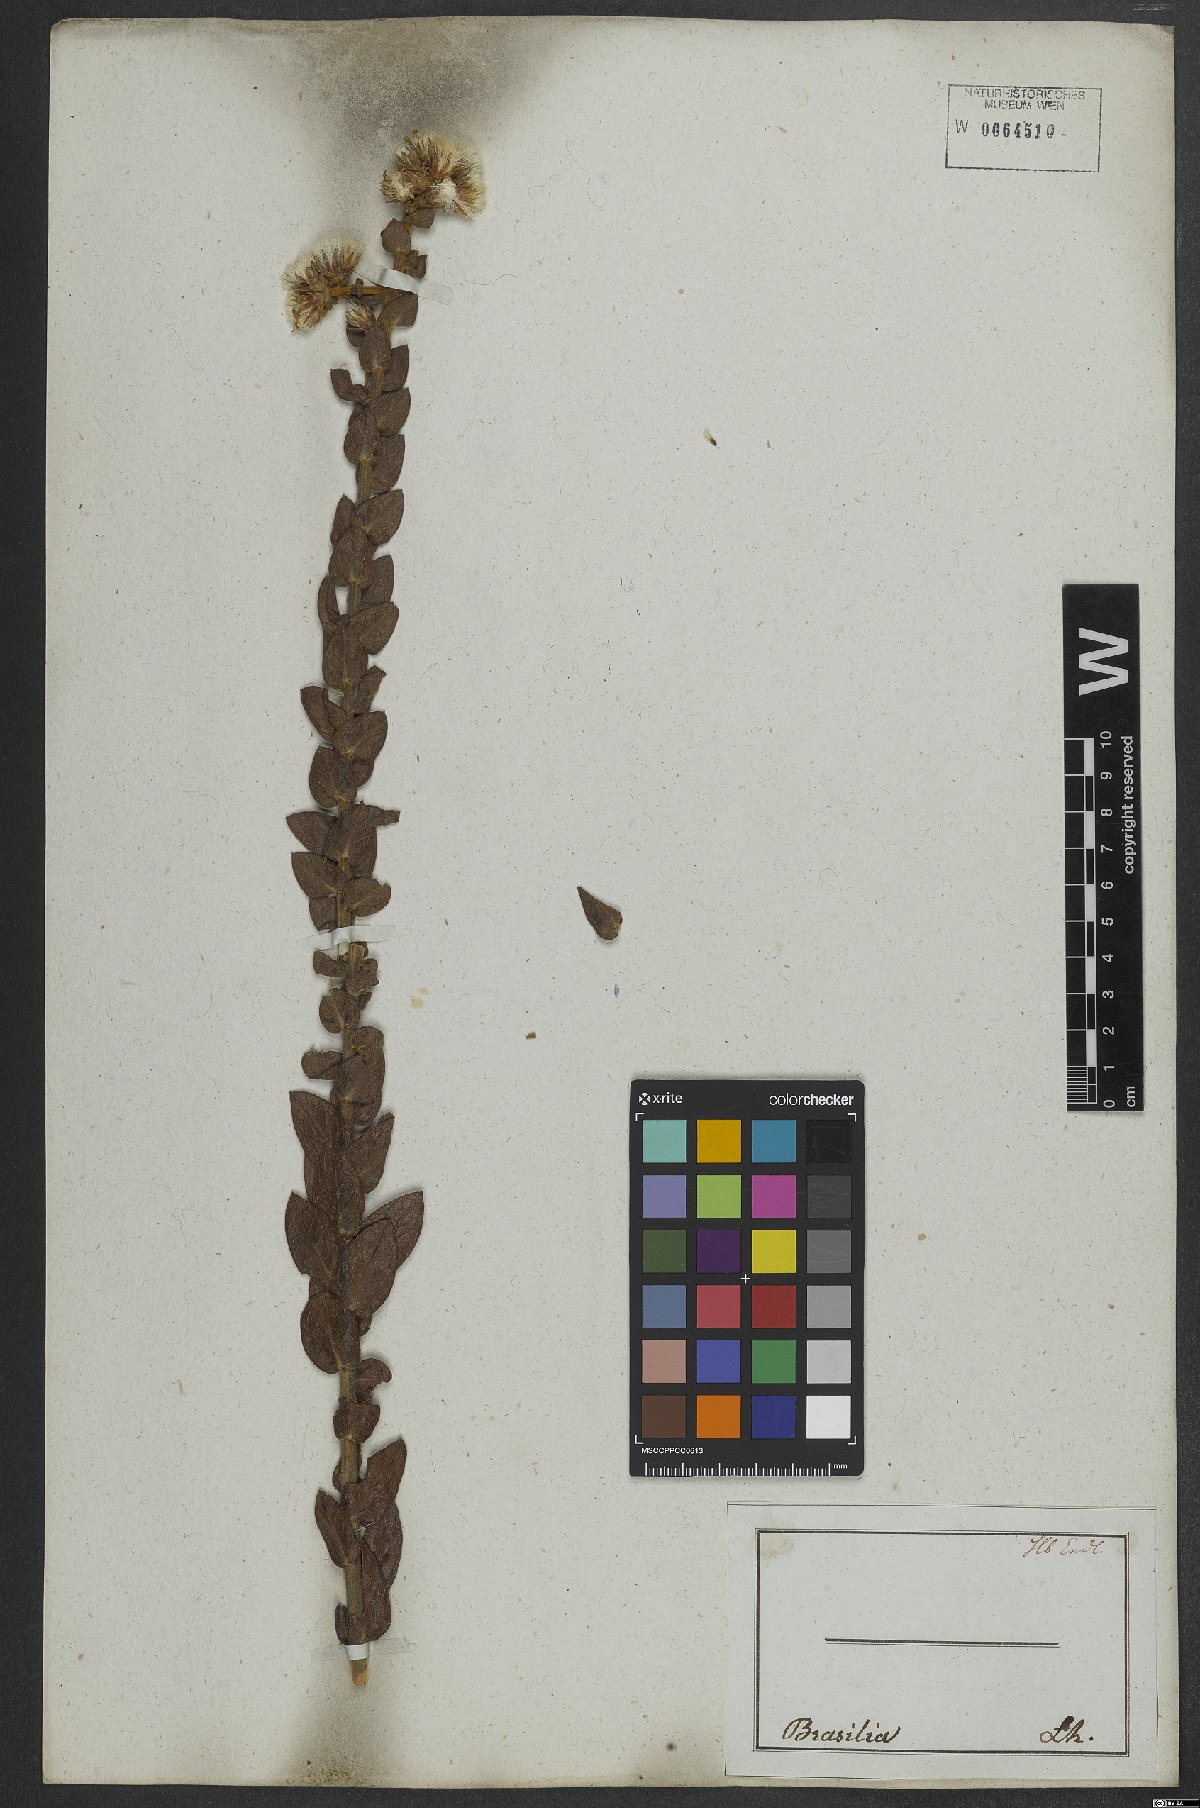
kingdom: Plantae
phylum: Tracheophyta
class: Magnoliopsida
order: Asterales
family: Asteraceae
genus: Lepidaploa
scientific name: Lepidaploa barbata
